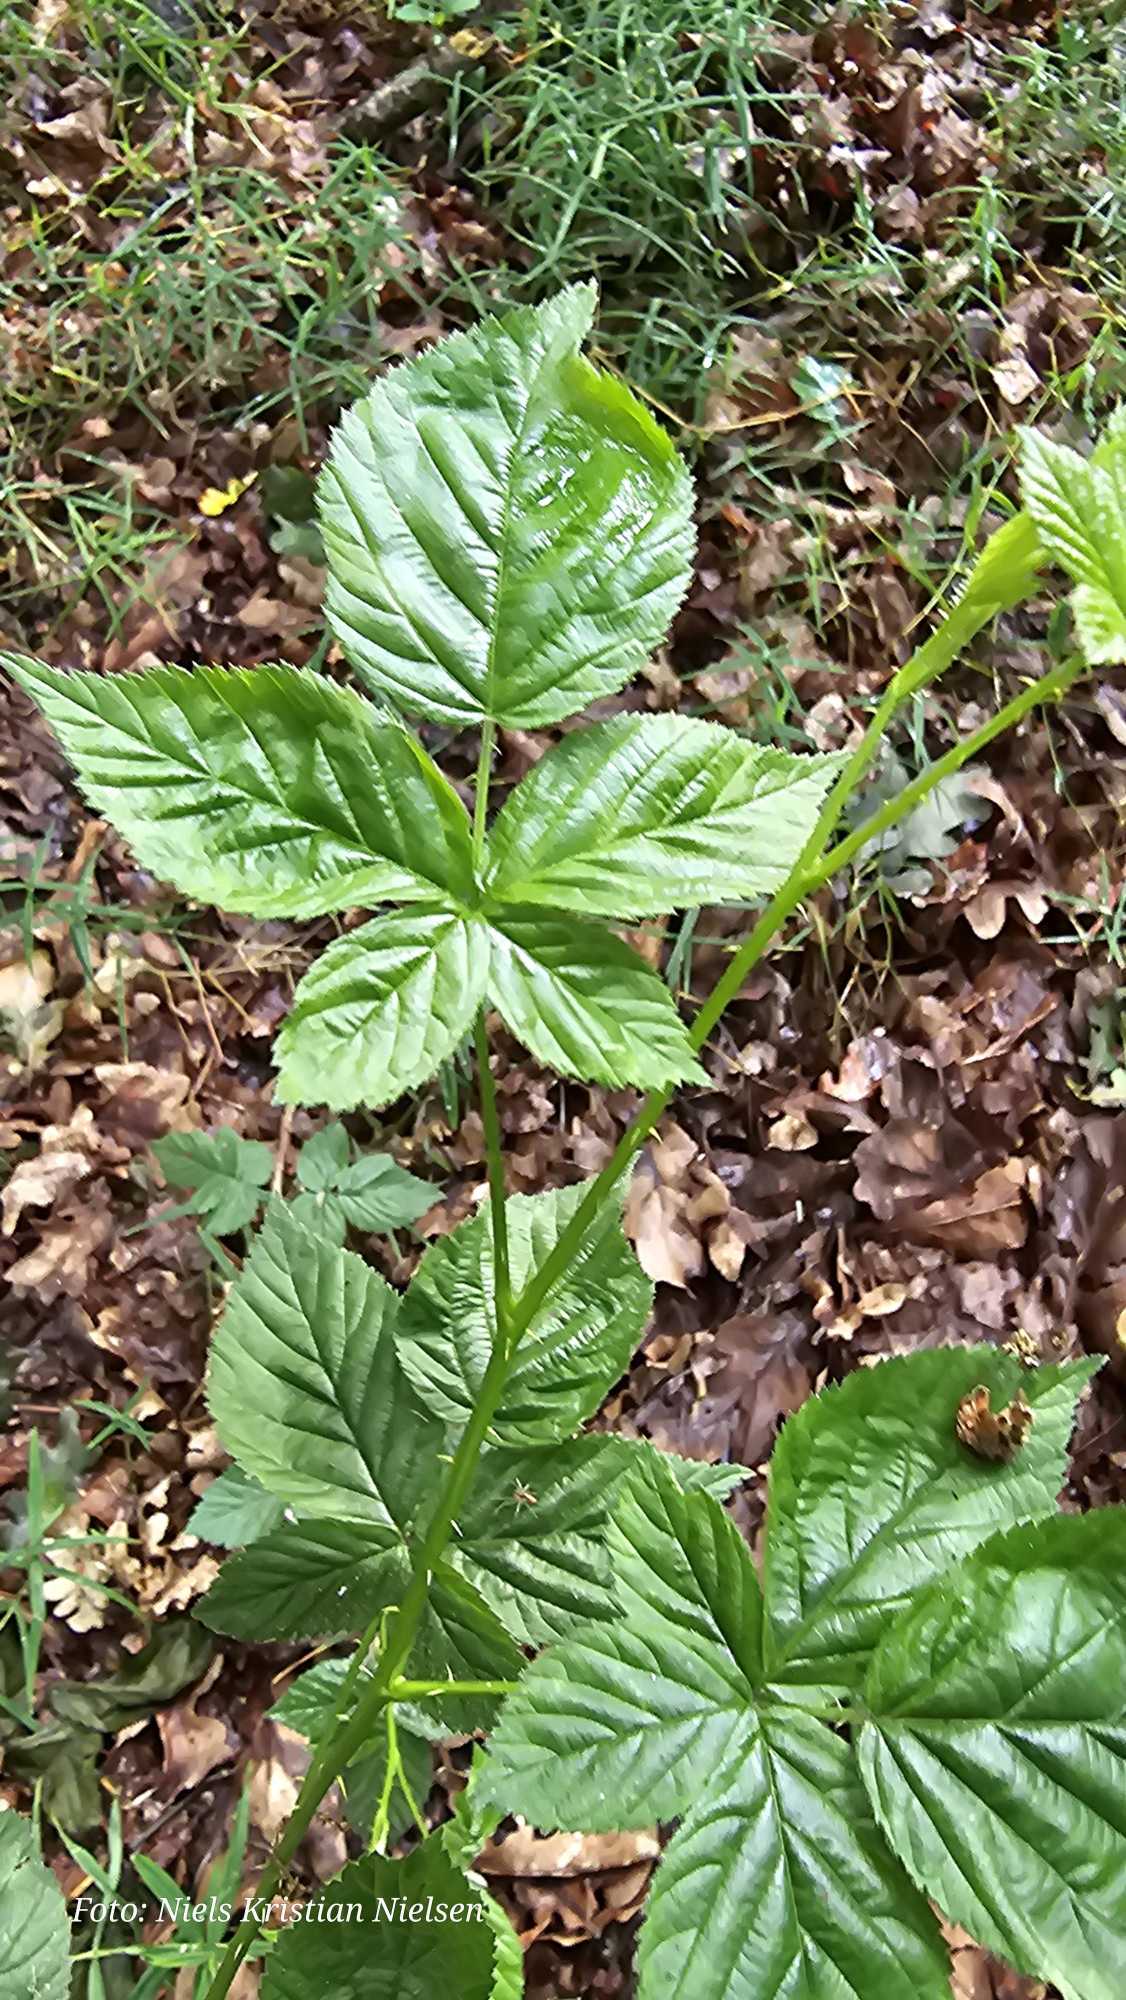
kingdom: Plantae
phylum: Tracheophyta
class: Magnoliopsida
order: Rosales
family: Rosaceae
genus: Rubus
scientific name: Rubus plicatus
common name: Almindelig brombær
